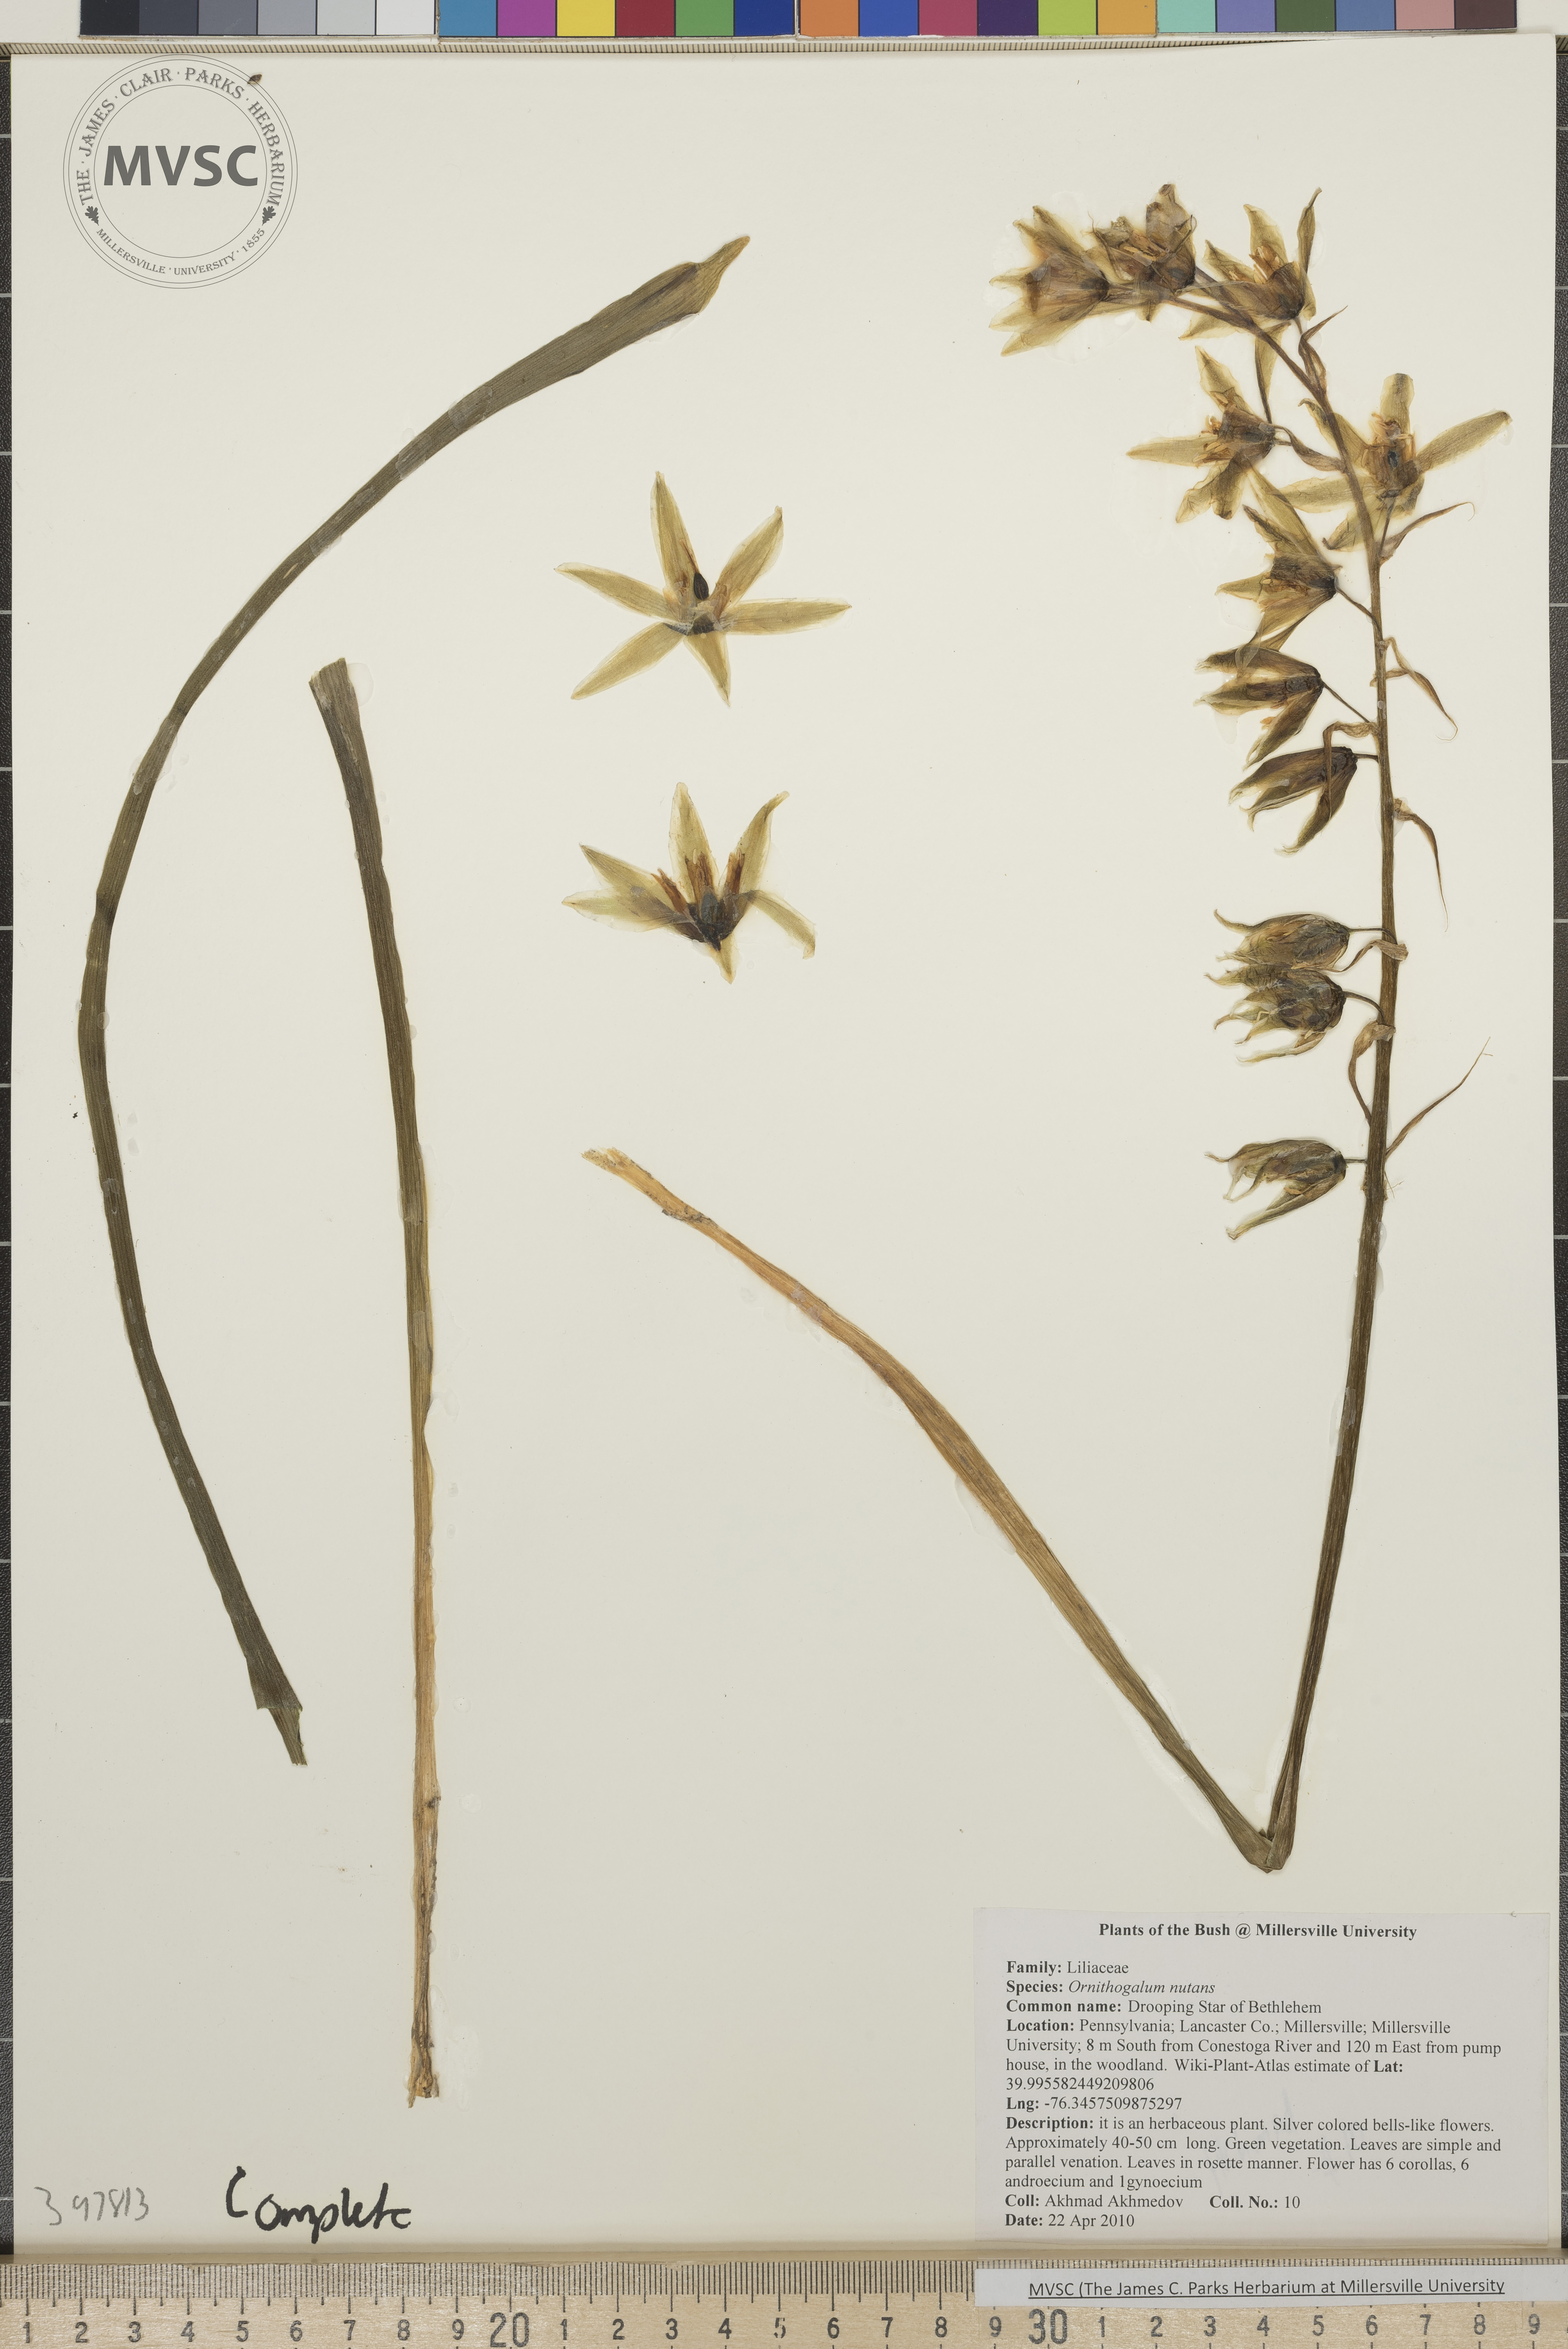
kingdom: Plantae
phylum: Tracheophyta
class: Liliopsida
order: Asparagales
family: Asparagaceae
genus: Ornithogalum
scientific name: Ornithogalum nutans
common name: Star-of-Bethlehem
